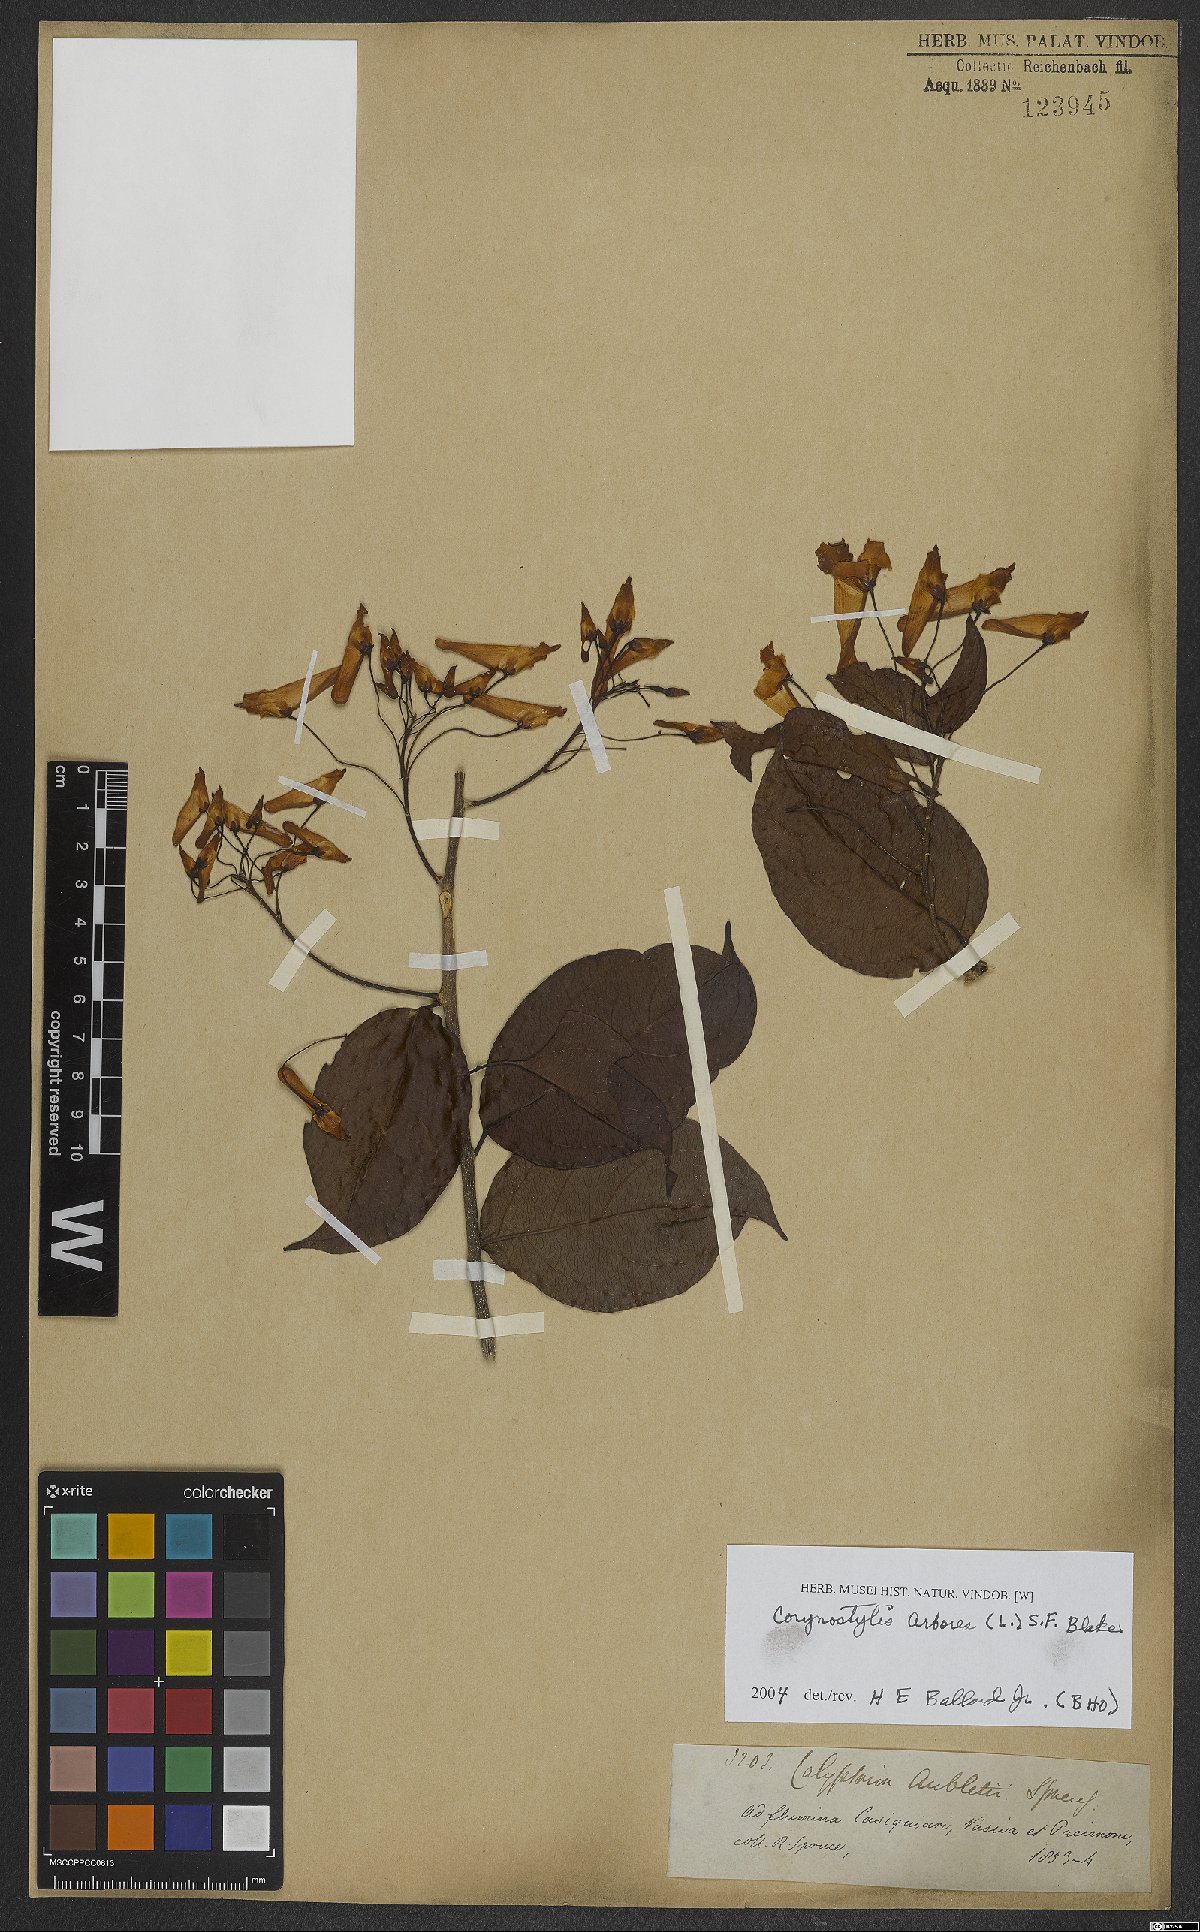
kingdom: Plantae
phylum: Tracheophyta
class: Magnoliopsida
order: Malpighiales
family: Violaceae
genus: Calyptrion
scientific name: Calyptrion arboreum
